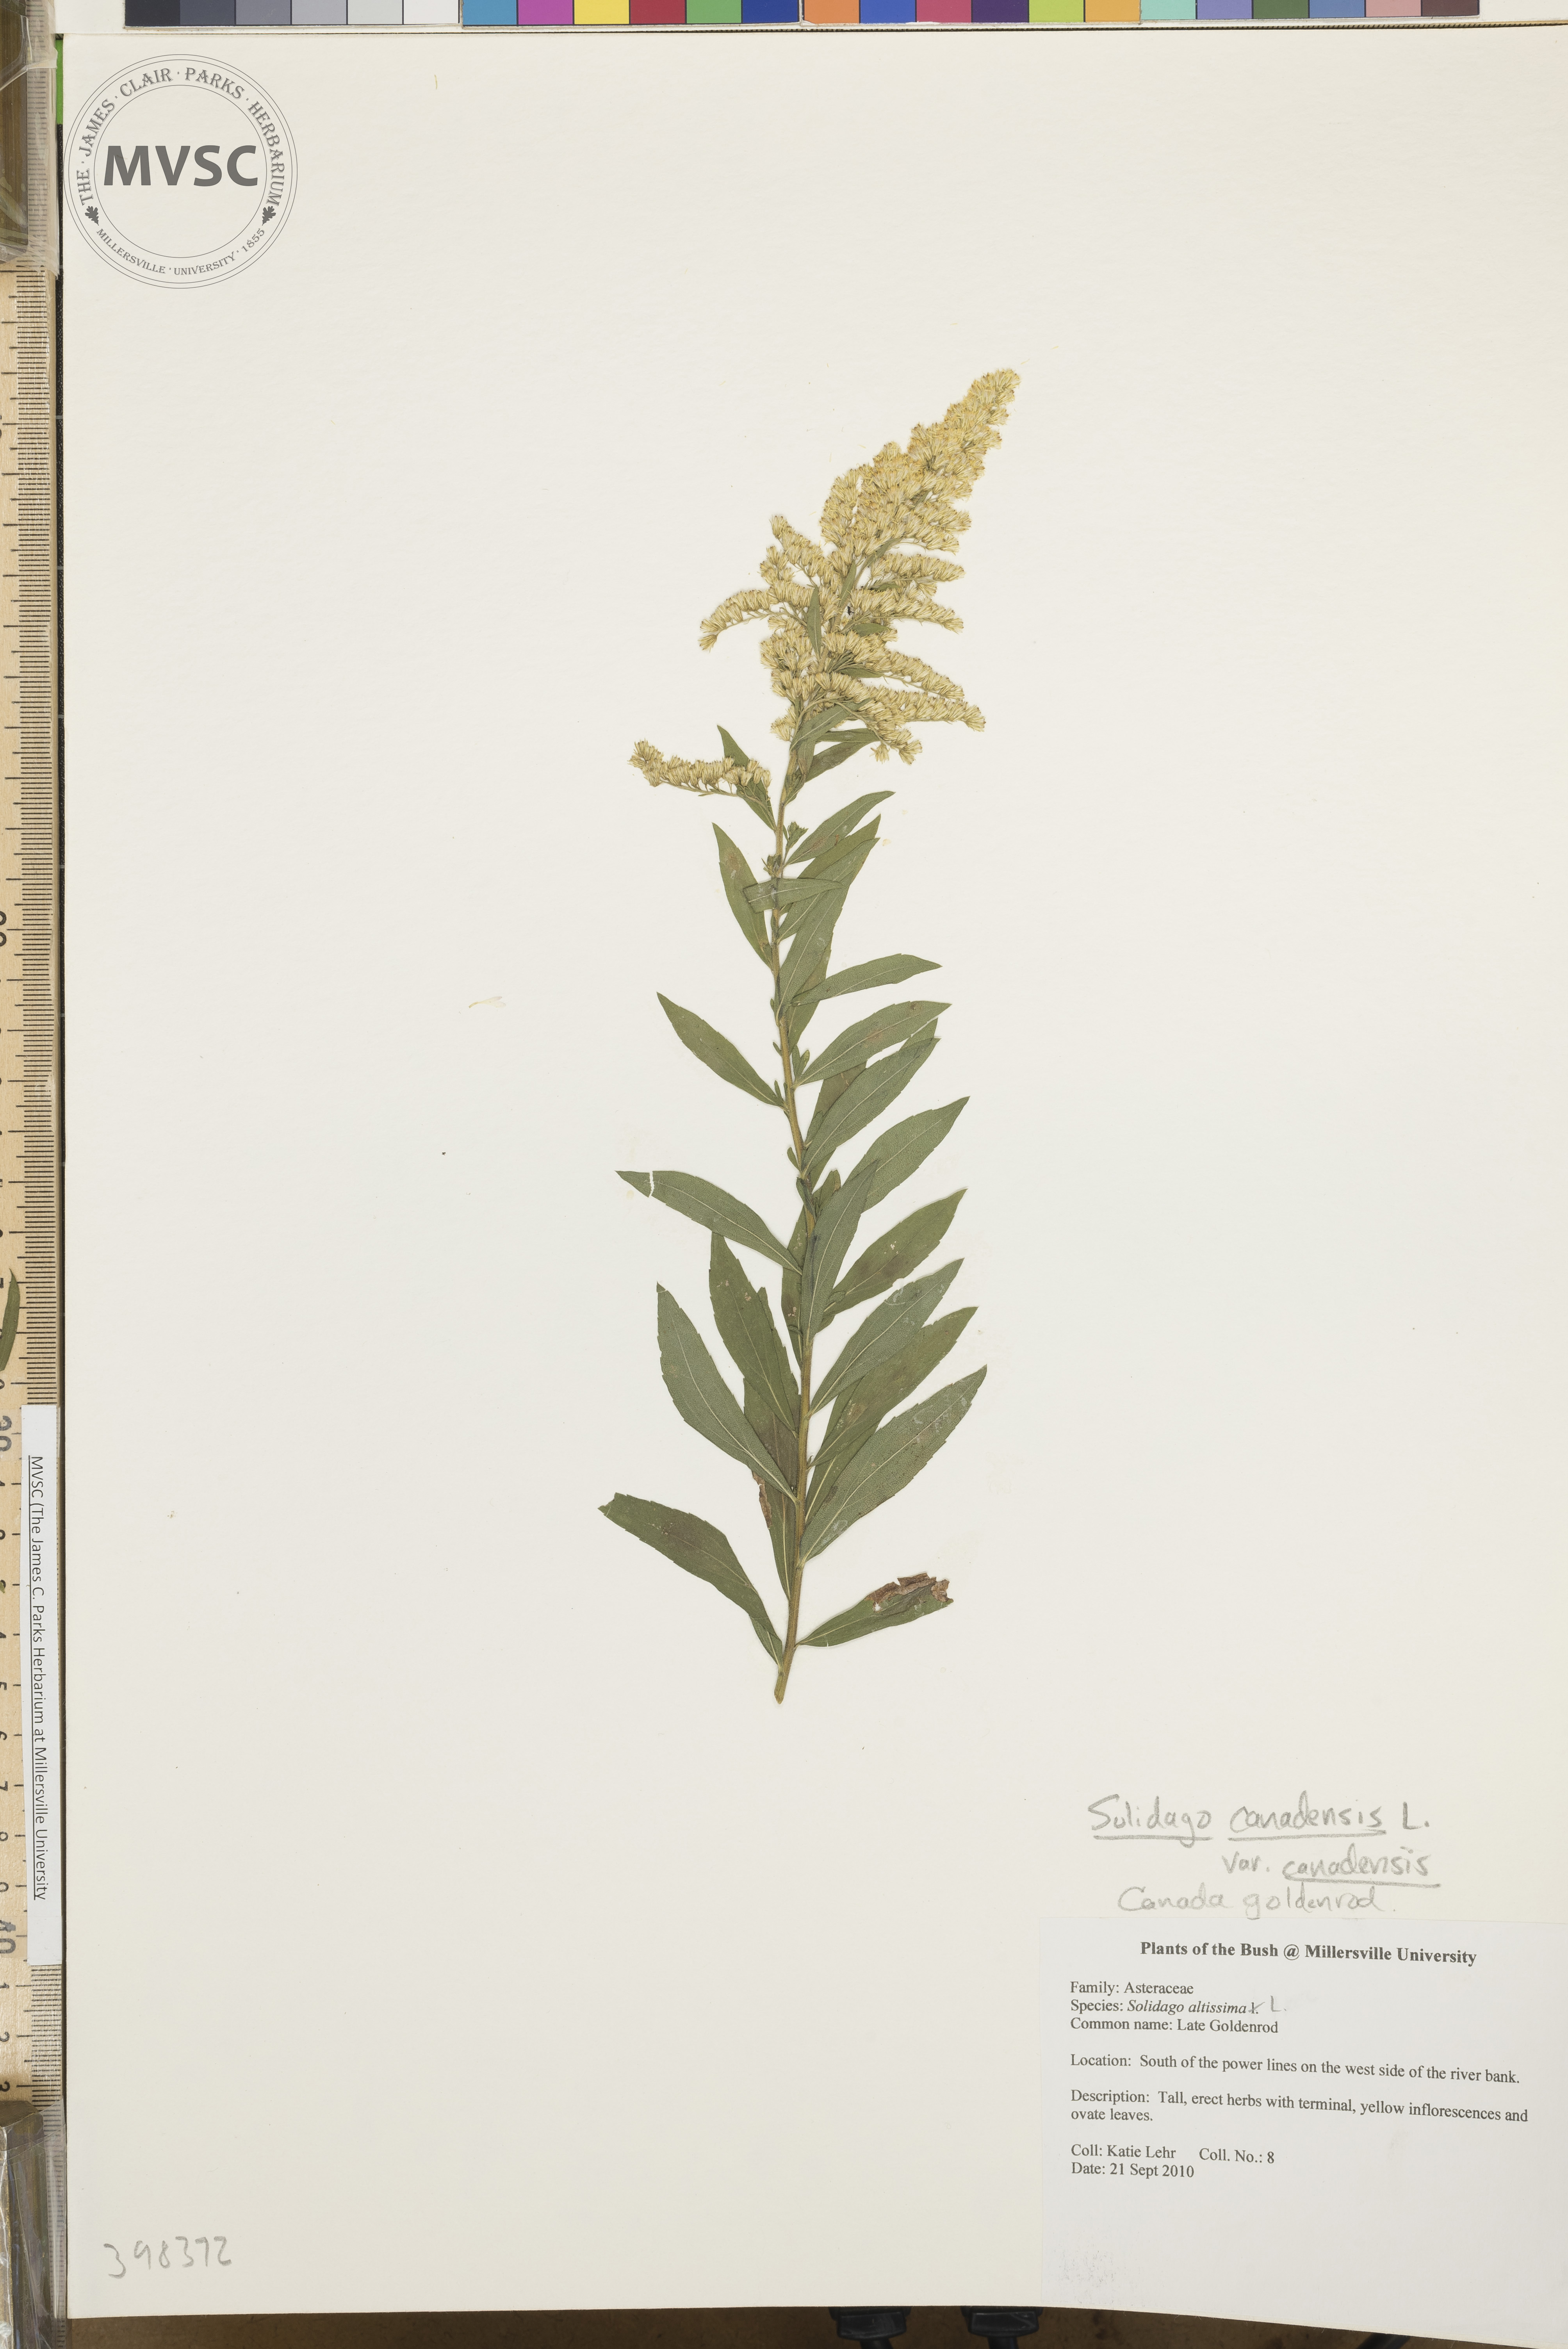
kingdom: Plantae
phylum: Tracheophyta
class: Magnoliopsida
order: Asterales
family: Asteraceae
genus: Solidago
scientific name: Solidago altissima
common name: Late goldenrod
